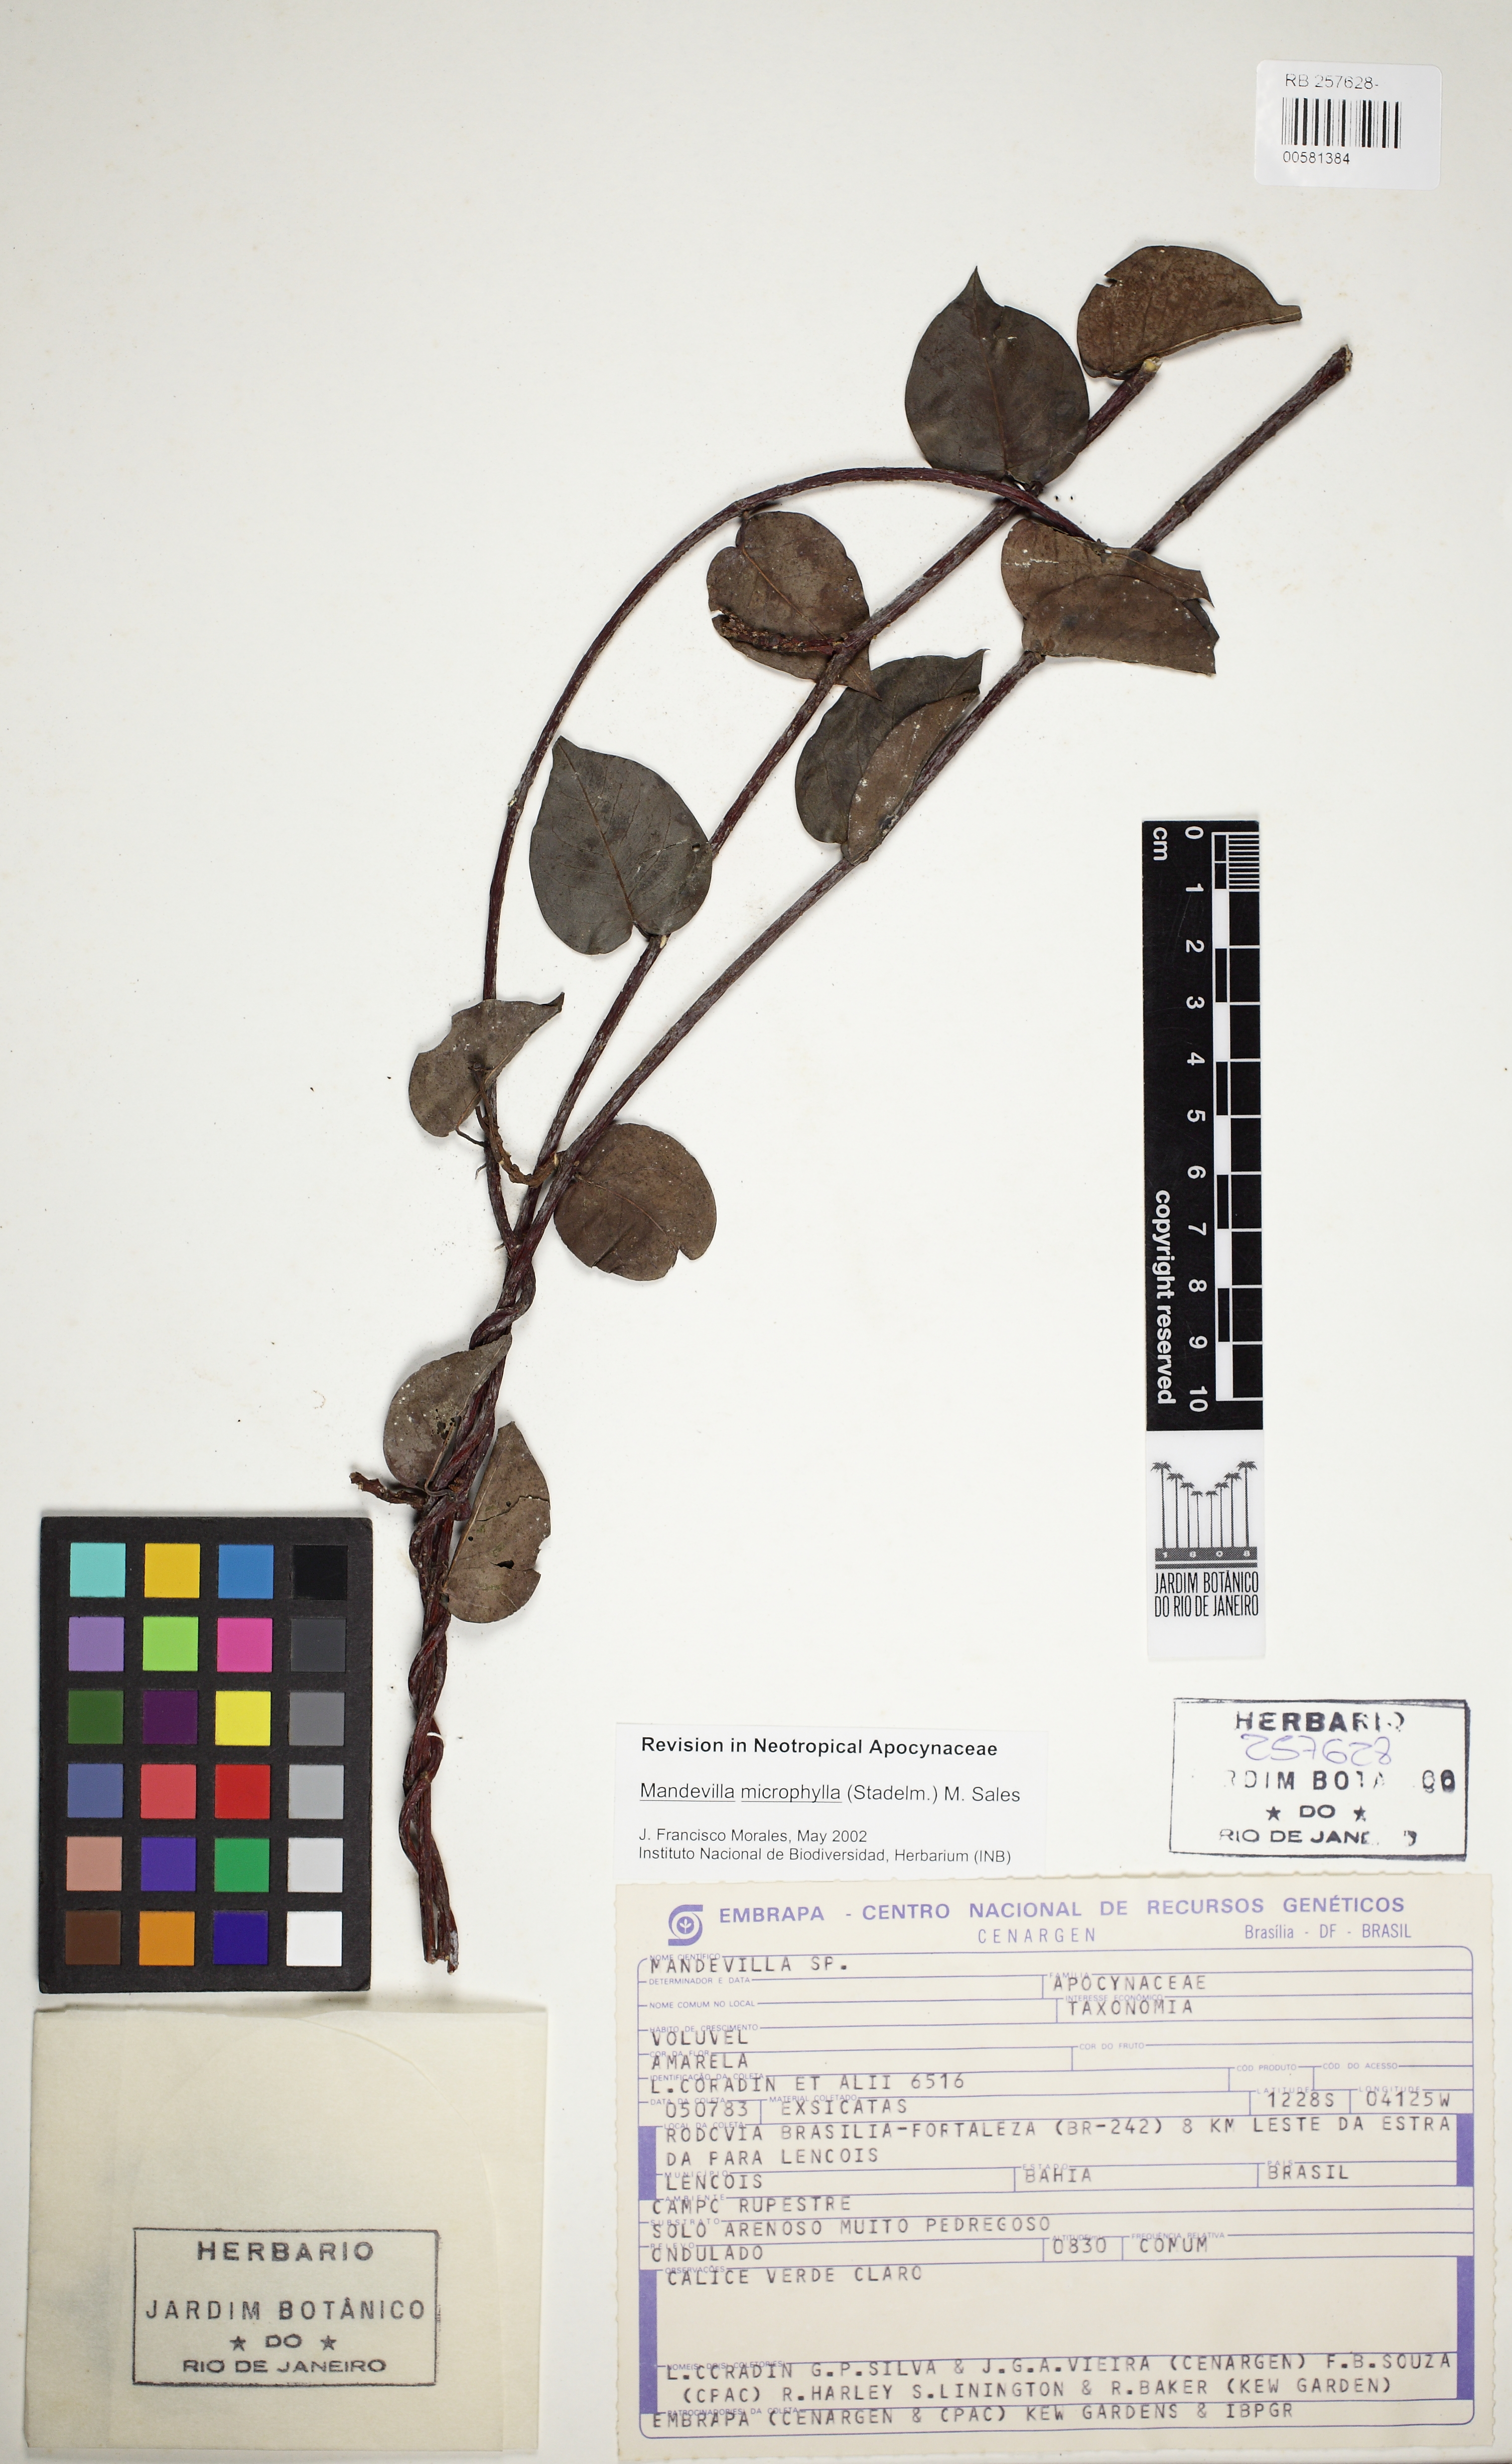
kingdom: Plantae
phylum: Tracheophyta
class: Magnoliopsida
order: Gentianales
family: Apocynaceae
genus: Mandevilla
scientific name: Mandevilla microphylla
